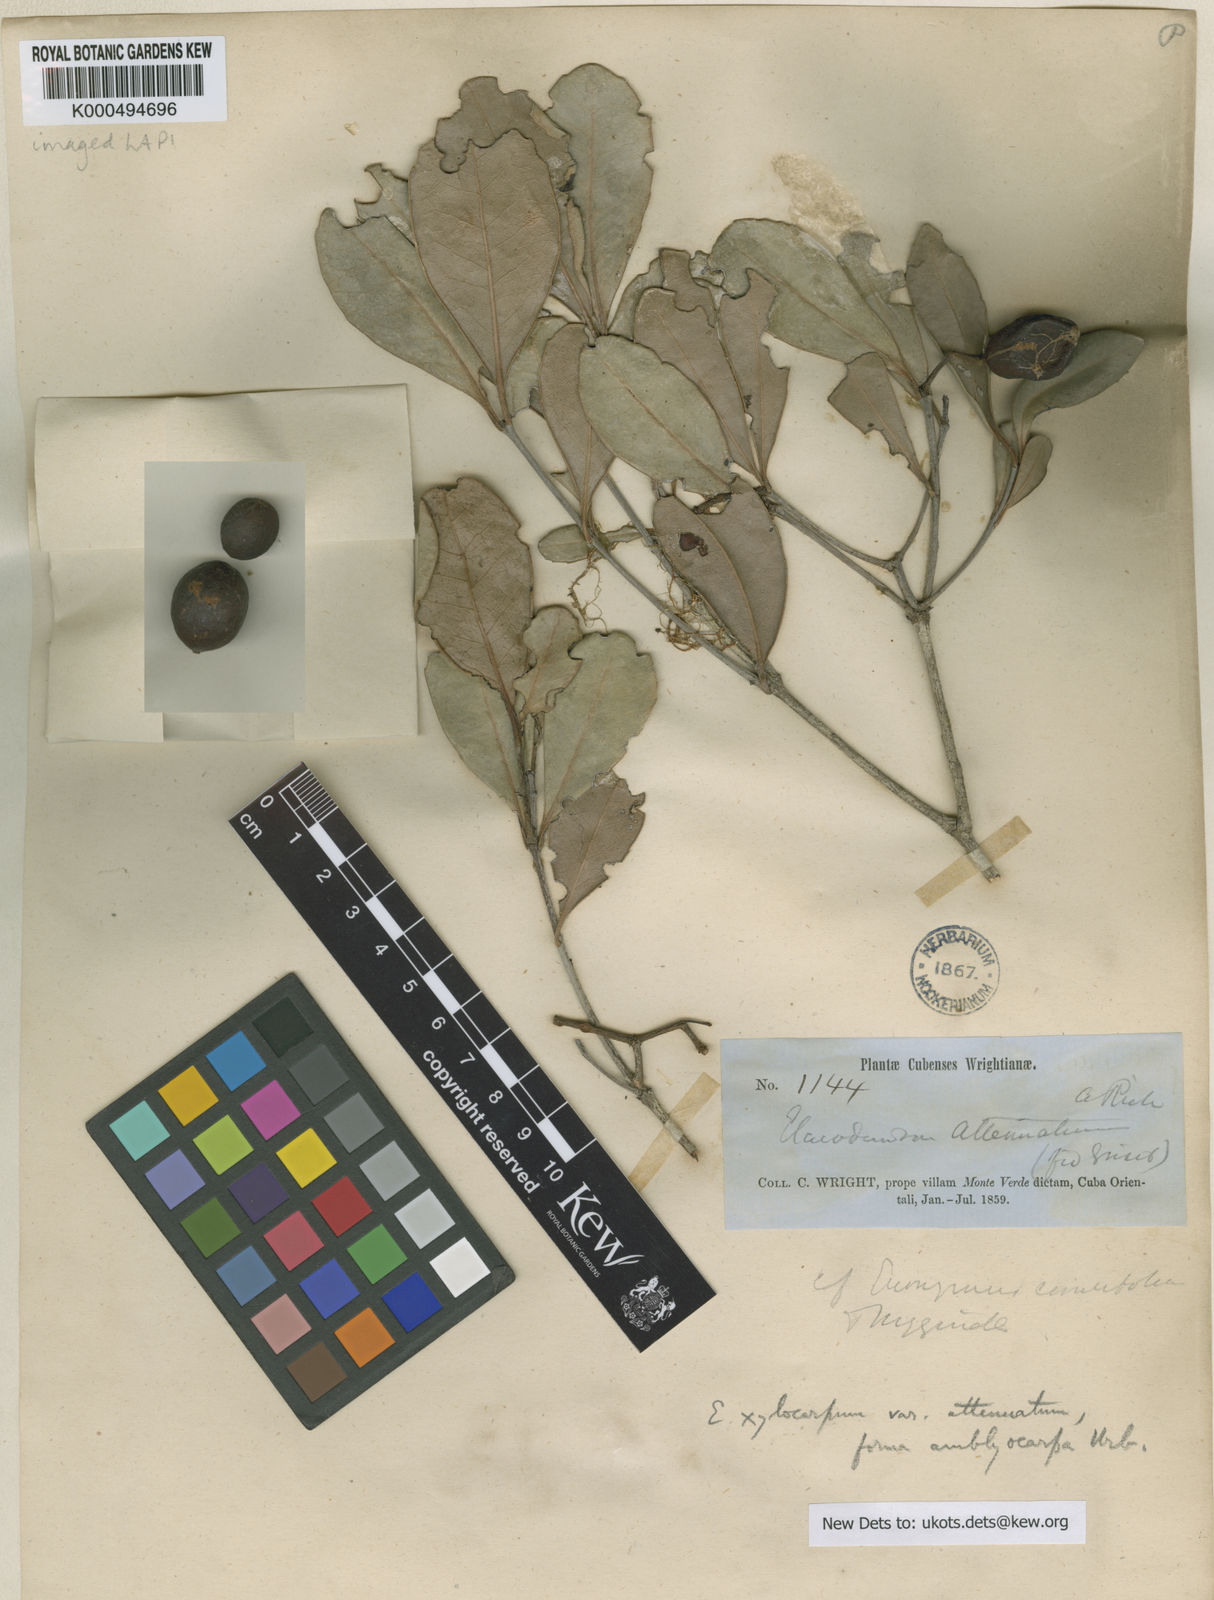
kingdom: Plantae
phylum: Tracheophyta
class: Magnoliopsida
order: Celastrales
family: Celastraceae
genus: Elaeodendron
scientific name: Elaeodendron xylocarpum
